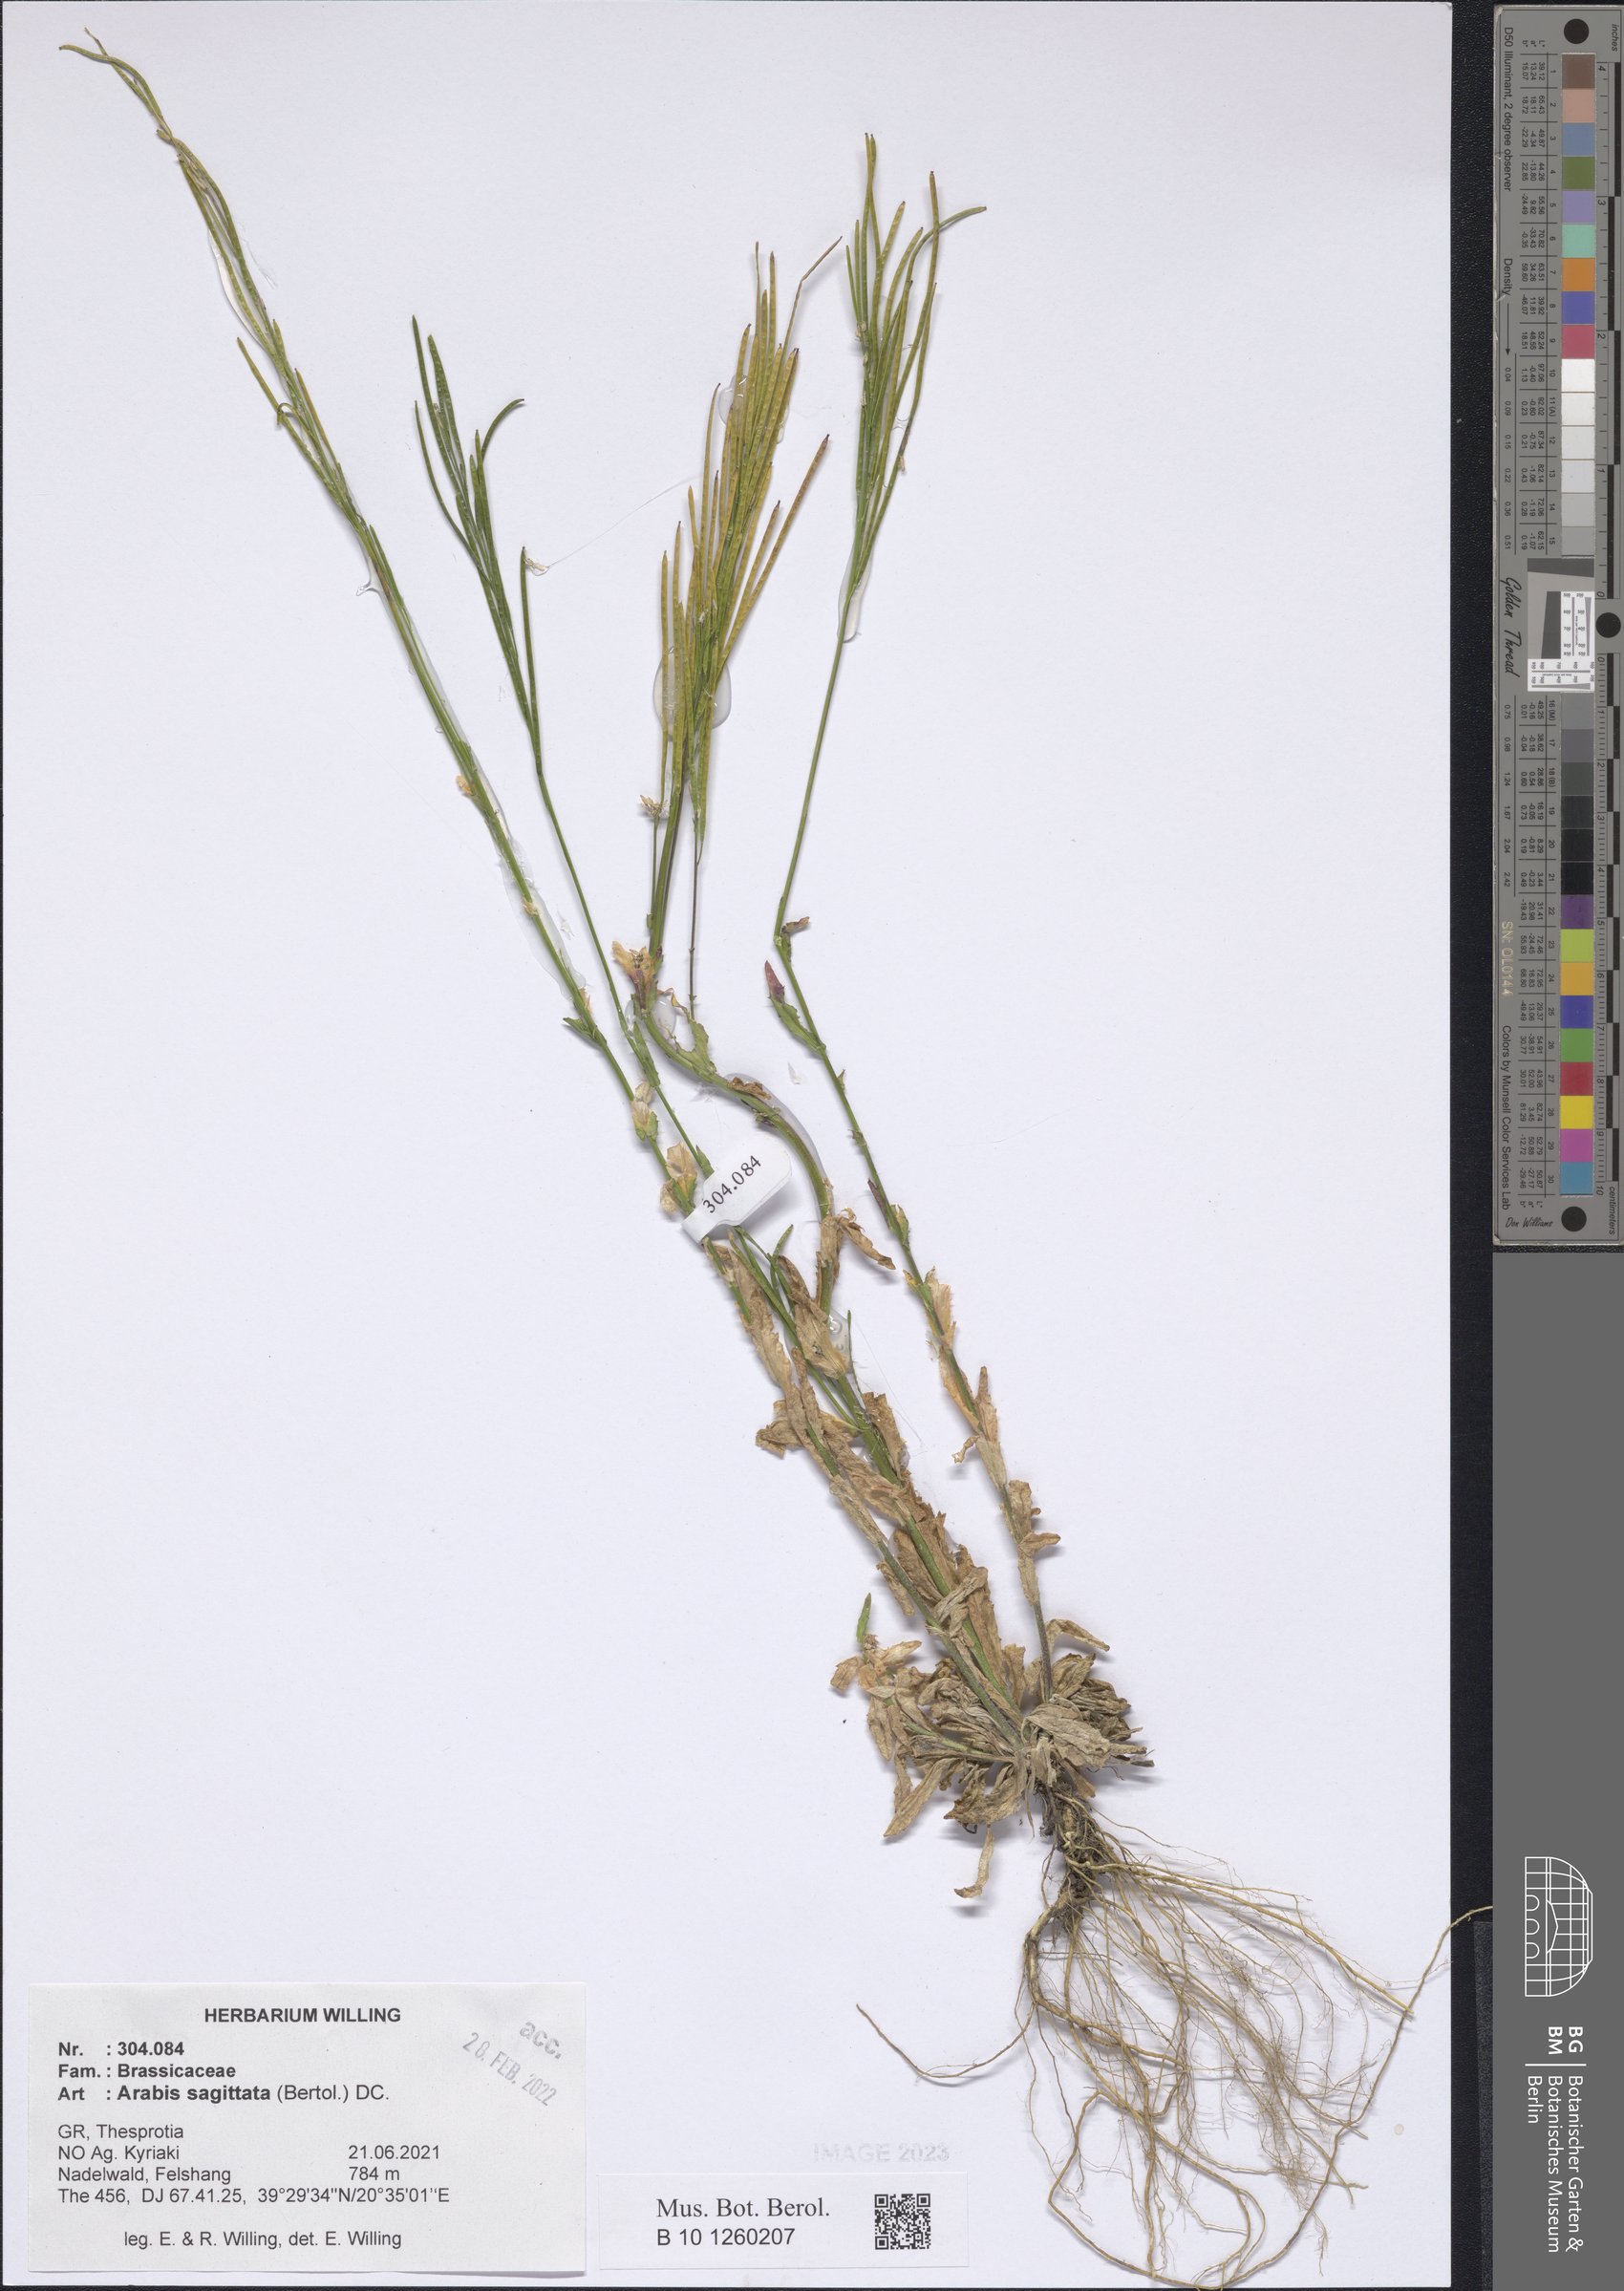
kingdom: Plantae
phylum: Tracheophyta
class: Magnoliopsida
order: Brassicales
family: Brassicaceae
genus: Arabis
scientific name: Arabis sagittata
